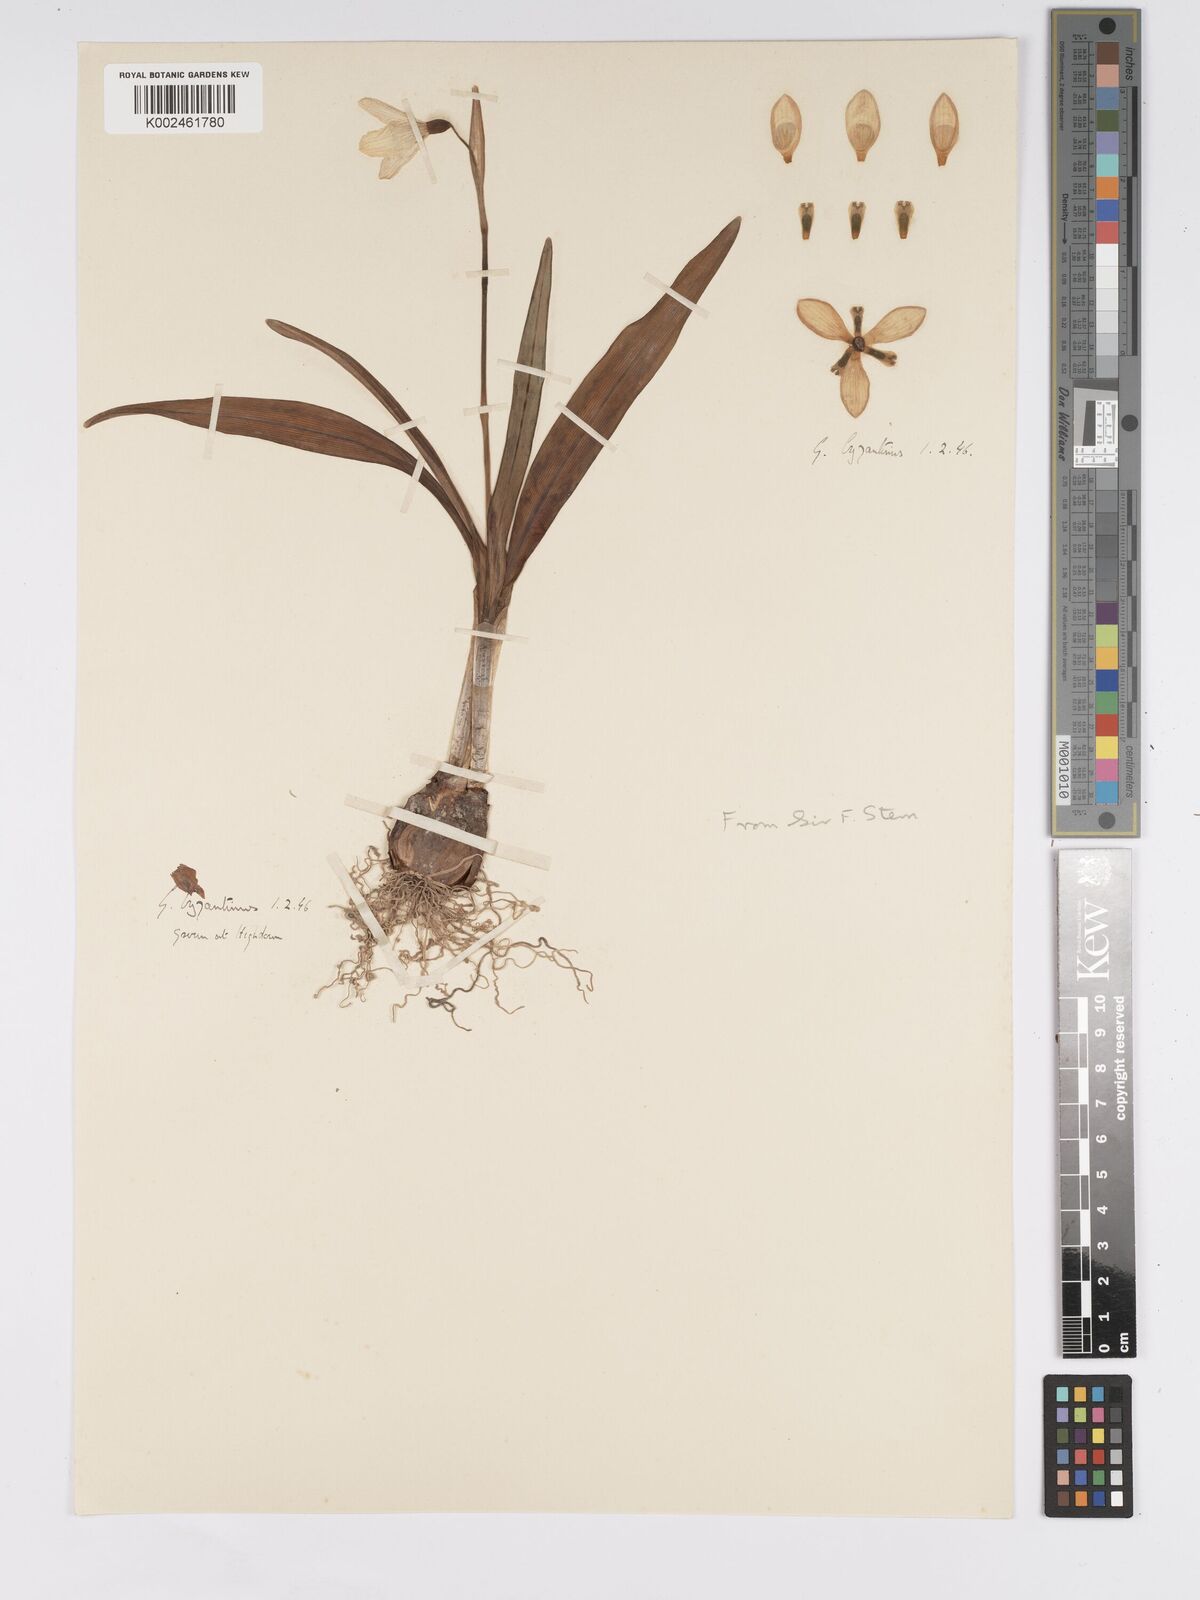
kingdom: Plantae
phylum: Tracheophyta
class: Liliopsida
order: Asparagales
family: Amaryllidaceae
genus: Galanthus
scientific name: Galanthus
